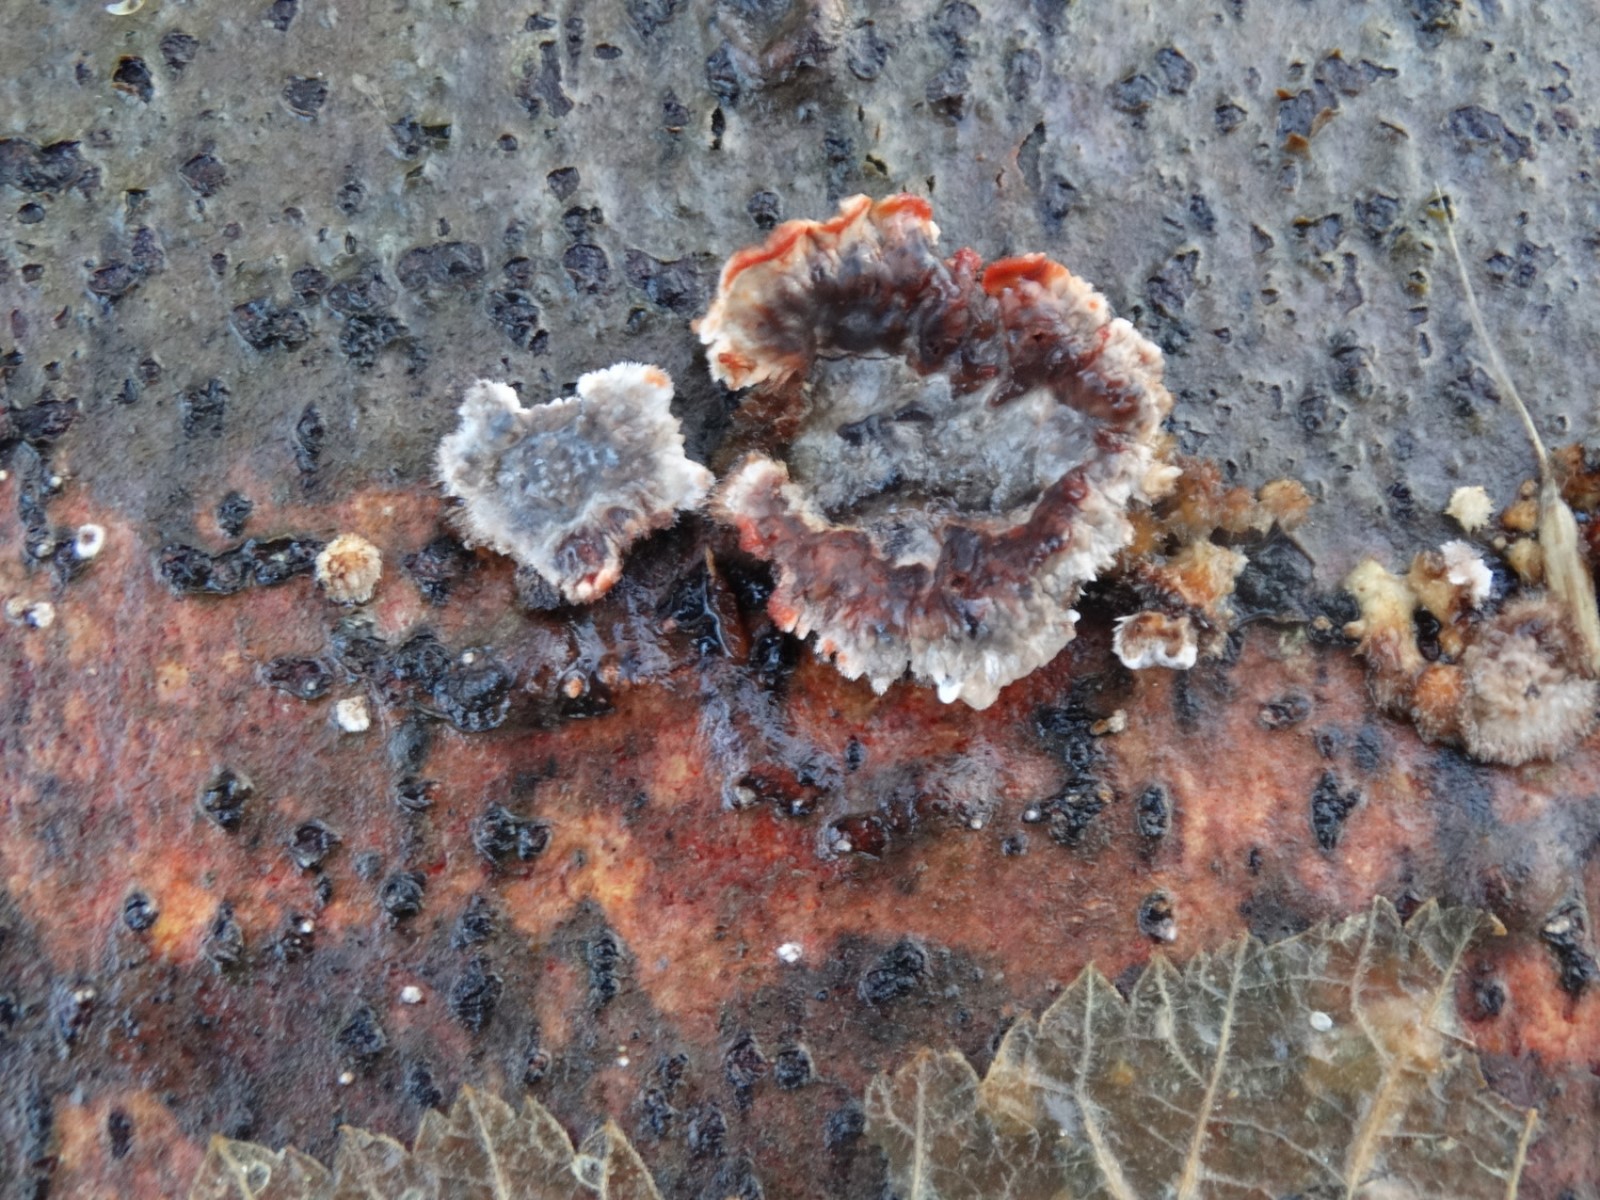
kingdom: Fungi
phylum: Basidiomycota
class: Agaricomycetes
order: Russulales
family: Stereaceae
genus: Stereum
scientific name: Stereum sanguinolentum
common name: blødende lædersvamp
